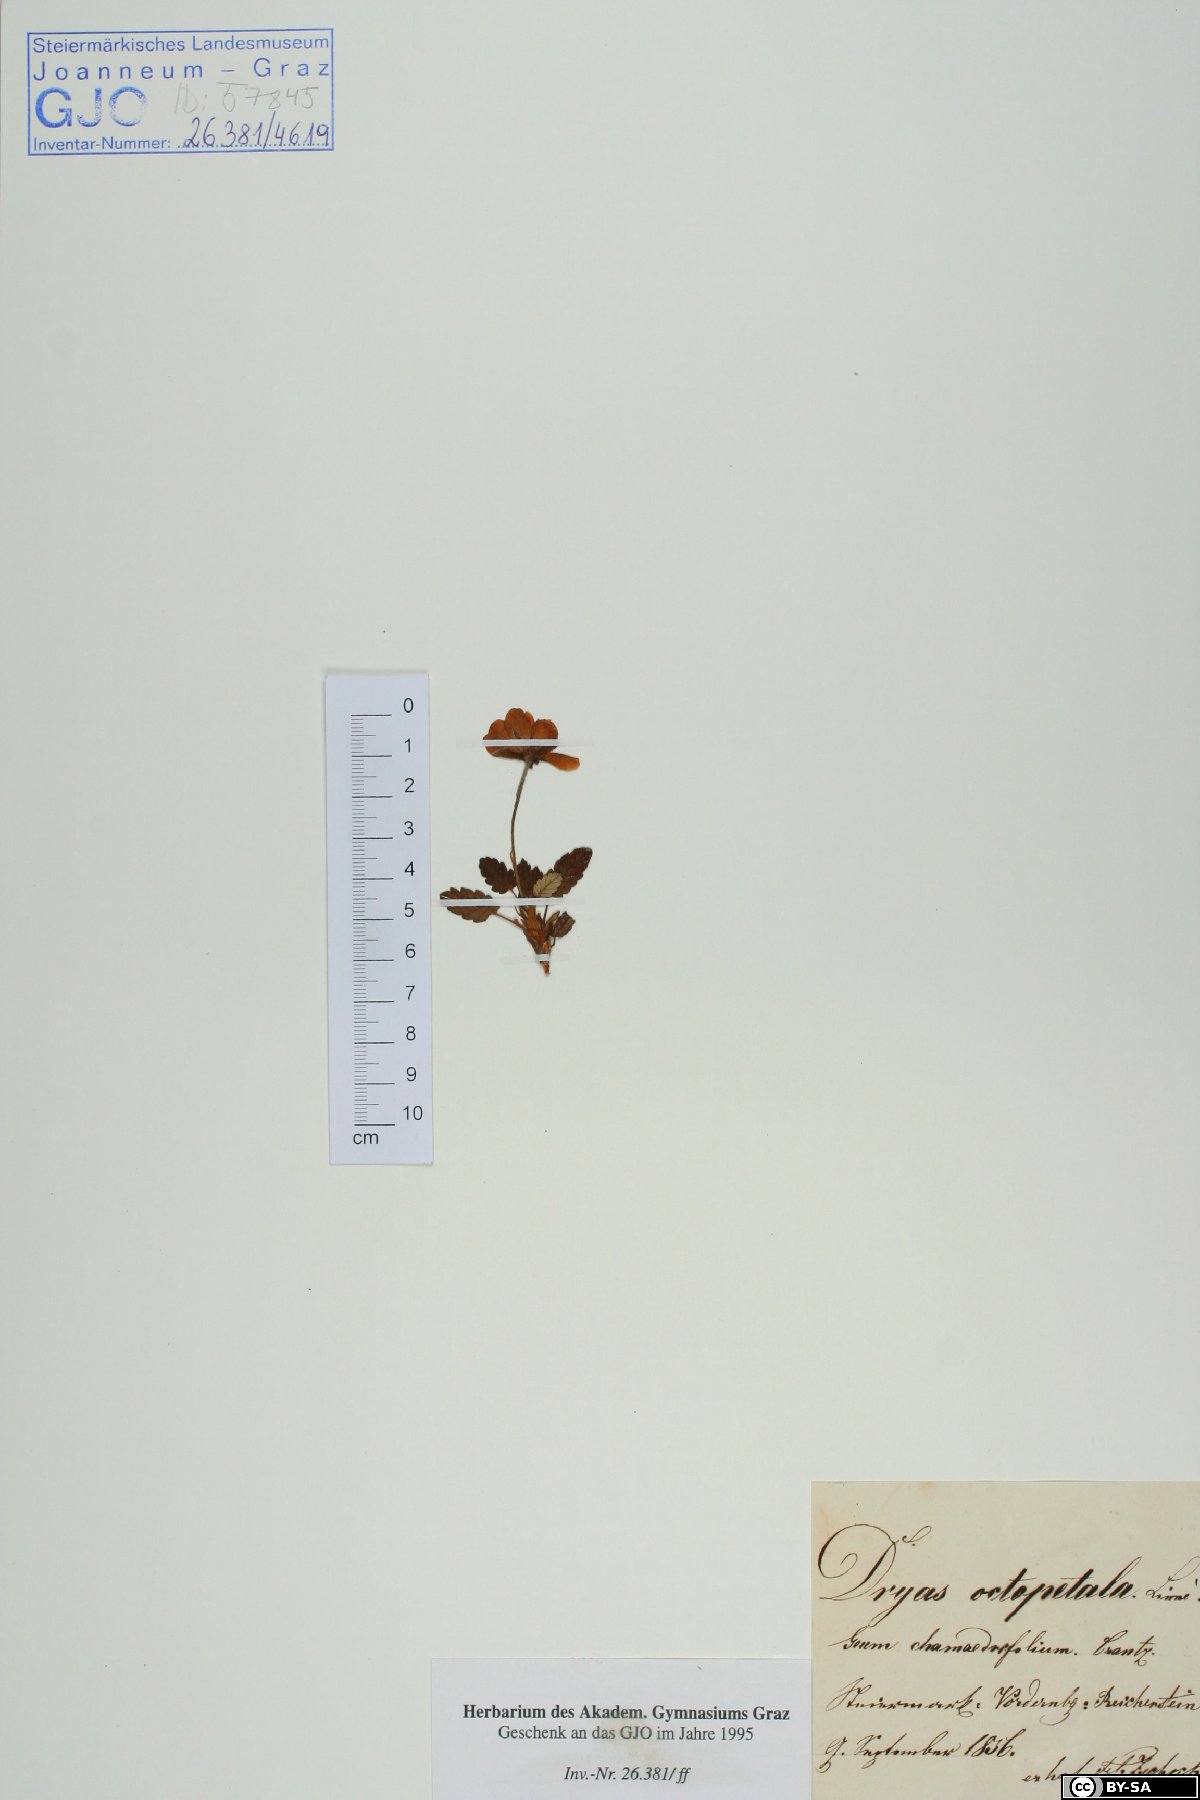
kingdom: Plantae
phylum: Tracheophyta
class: Magnoliopsida
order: Rosales
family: Rosaceae
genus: Dryas
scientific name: Dryas octopetala
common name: Eight-petal mountain-avens
